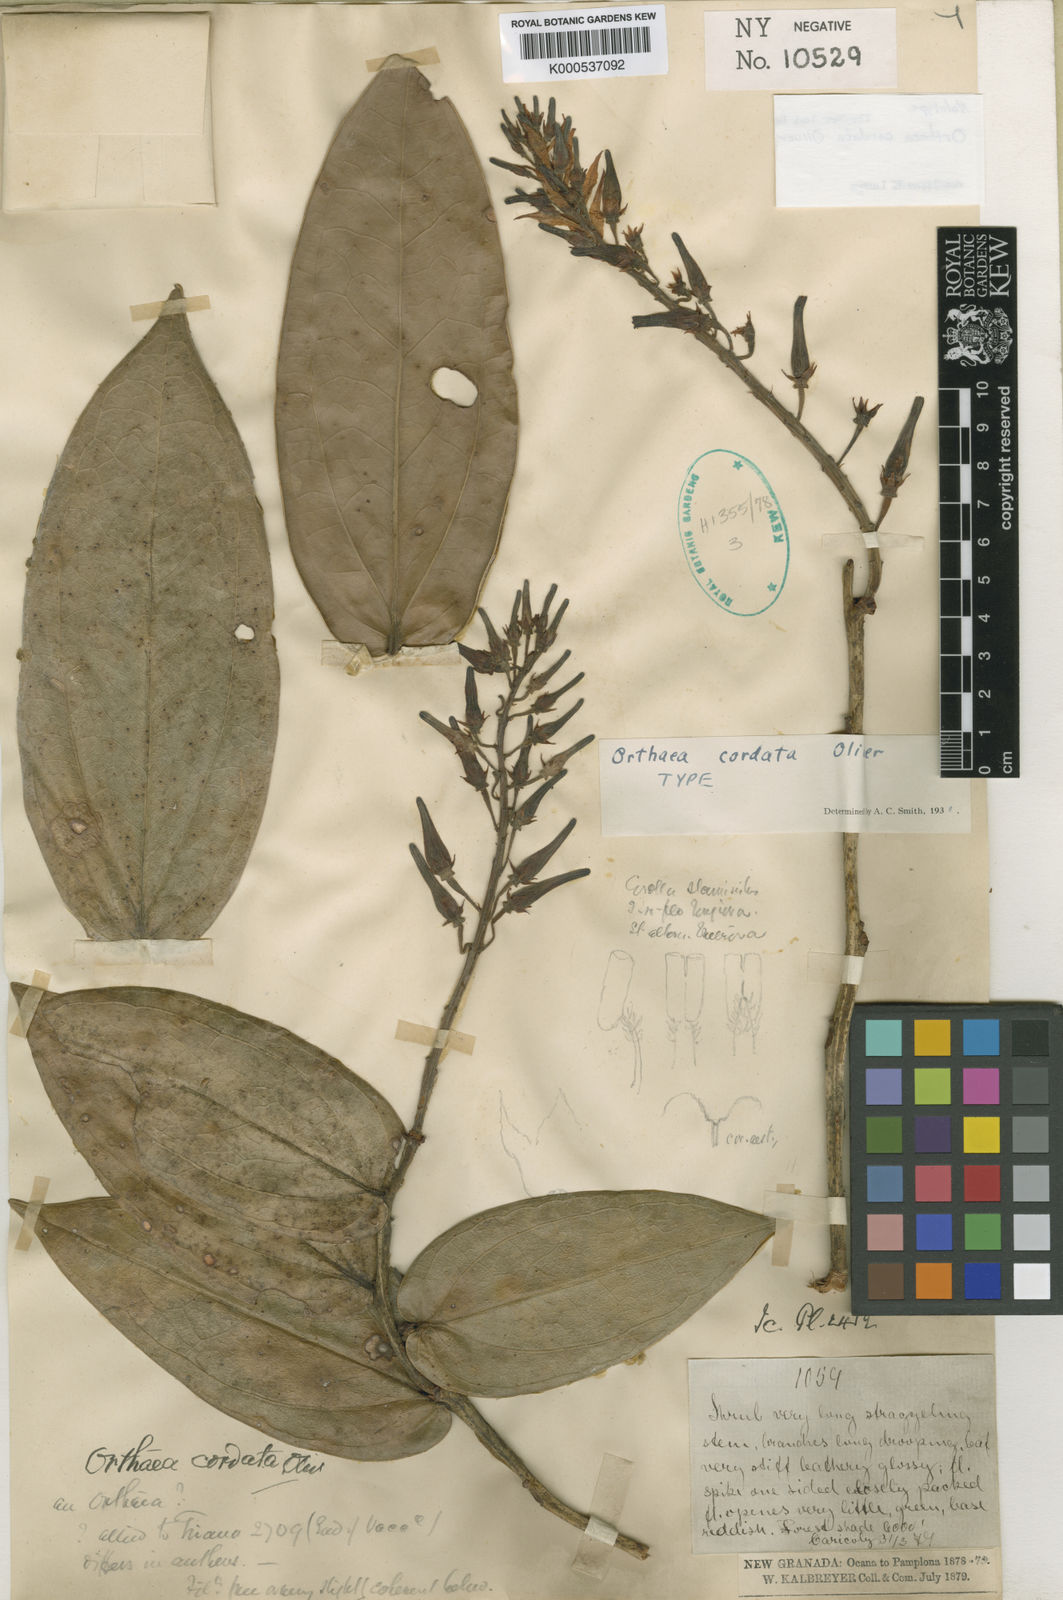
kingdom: Plantae
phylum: Tracheophyta
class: Magnoliopsida
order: Ericales
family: Ericaceae
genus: Orthaea
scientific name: Orthaea cordata
